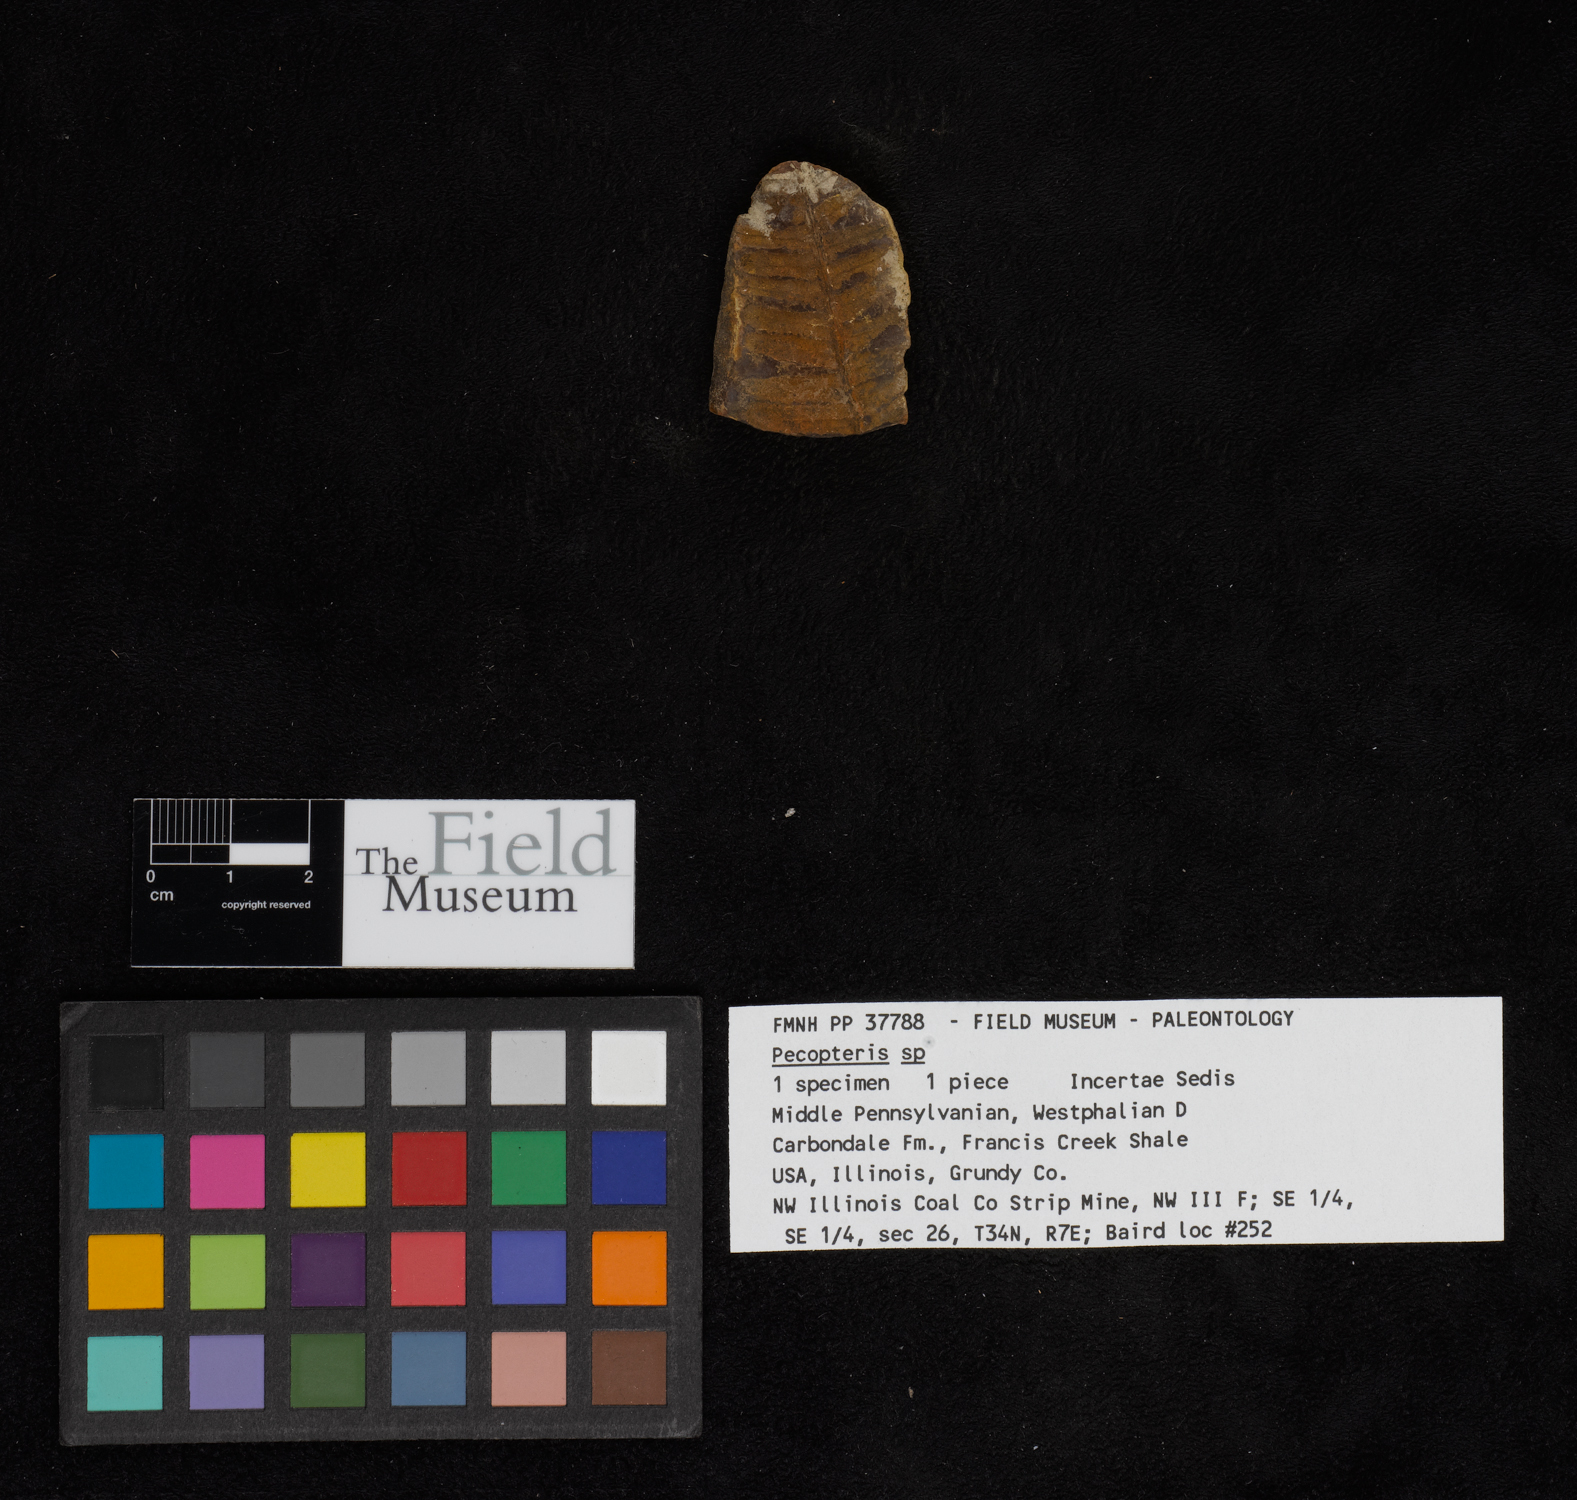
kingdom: Plantae
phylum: Tracheophyta
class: Polypodiopsida
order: Marattiales
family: Asterothecaceae
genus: Pecopteris
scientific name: Pecopteris
